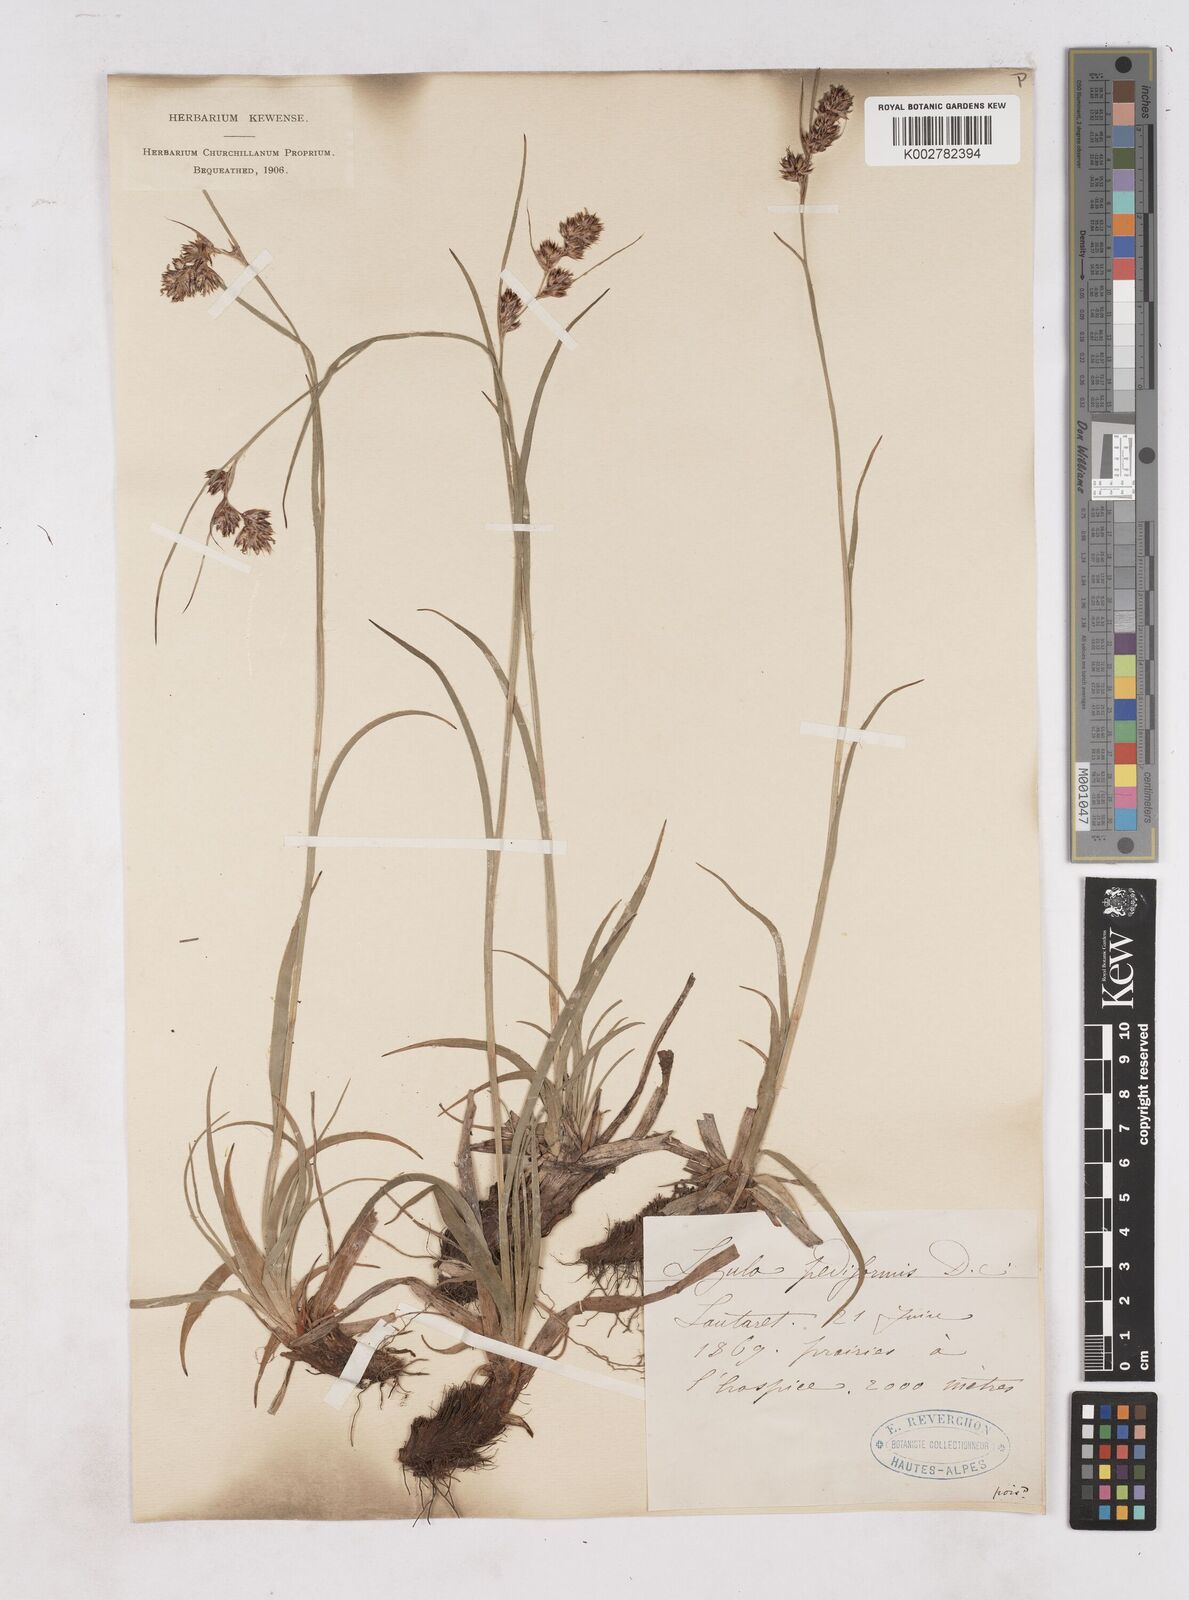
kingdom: Plantae
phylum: Tracheophyta
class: Liliopsida
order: Poales
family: Juncaceae
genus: Luzula
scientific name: Luzula pediformis
